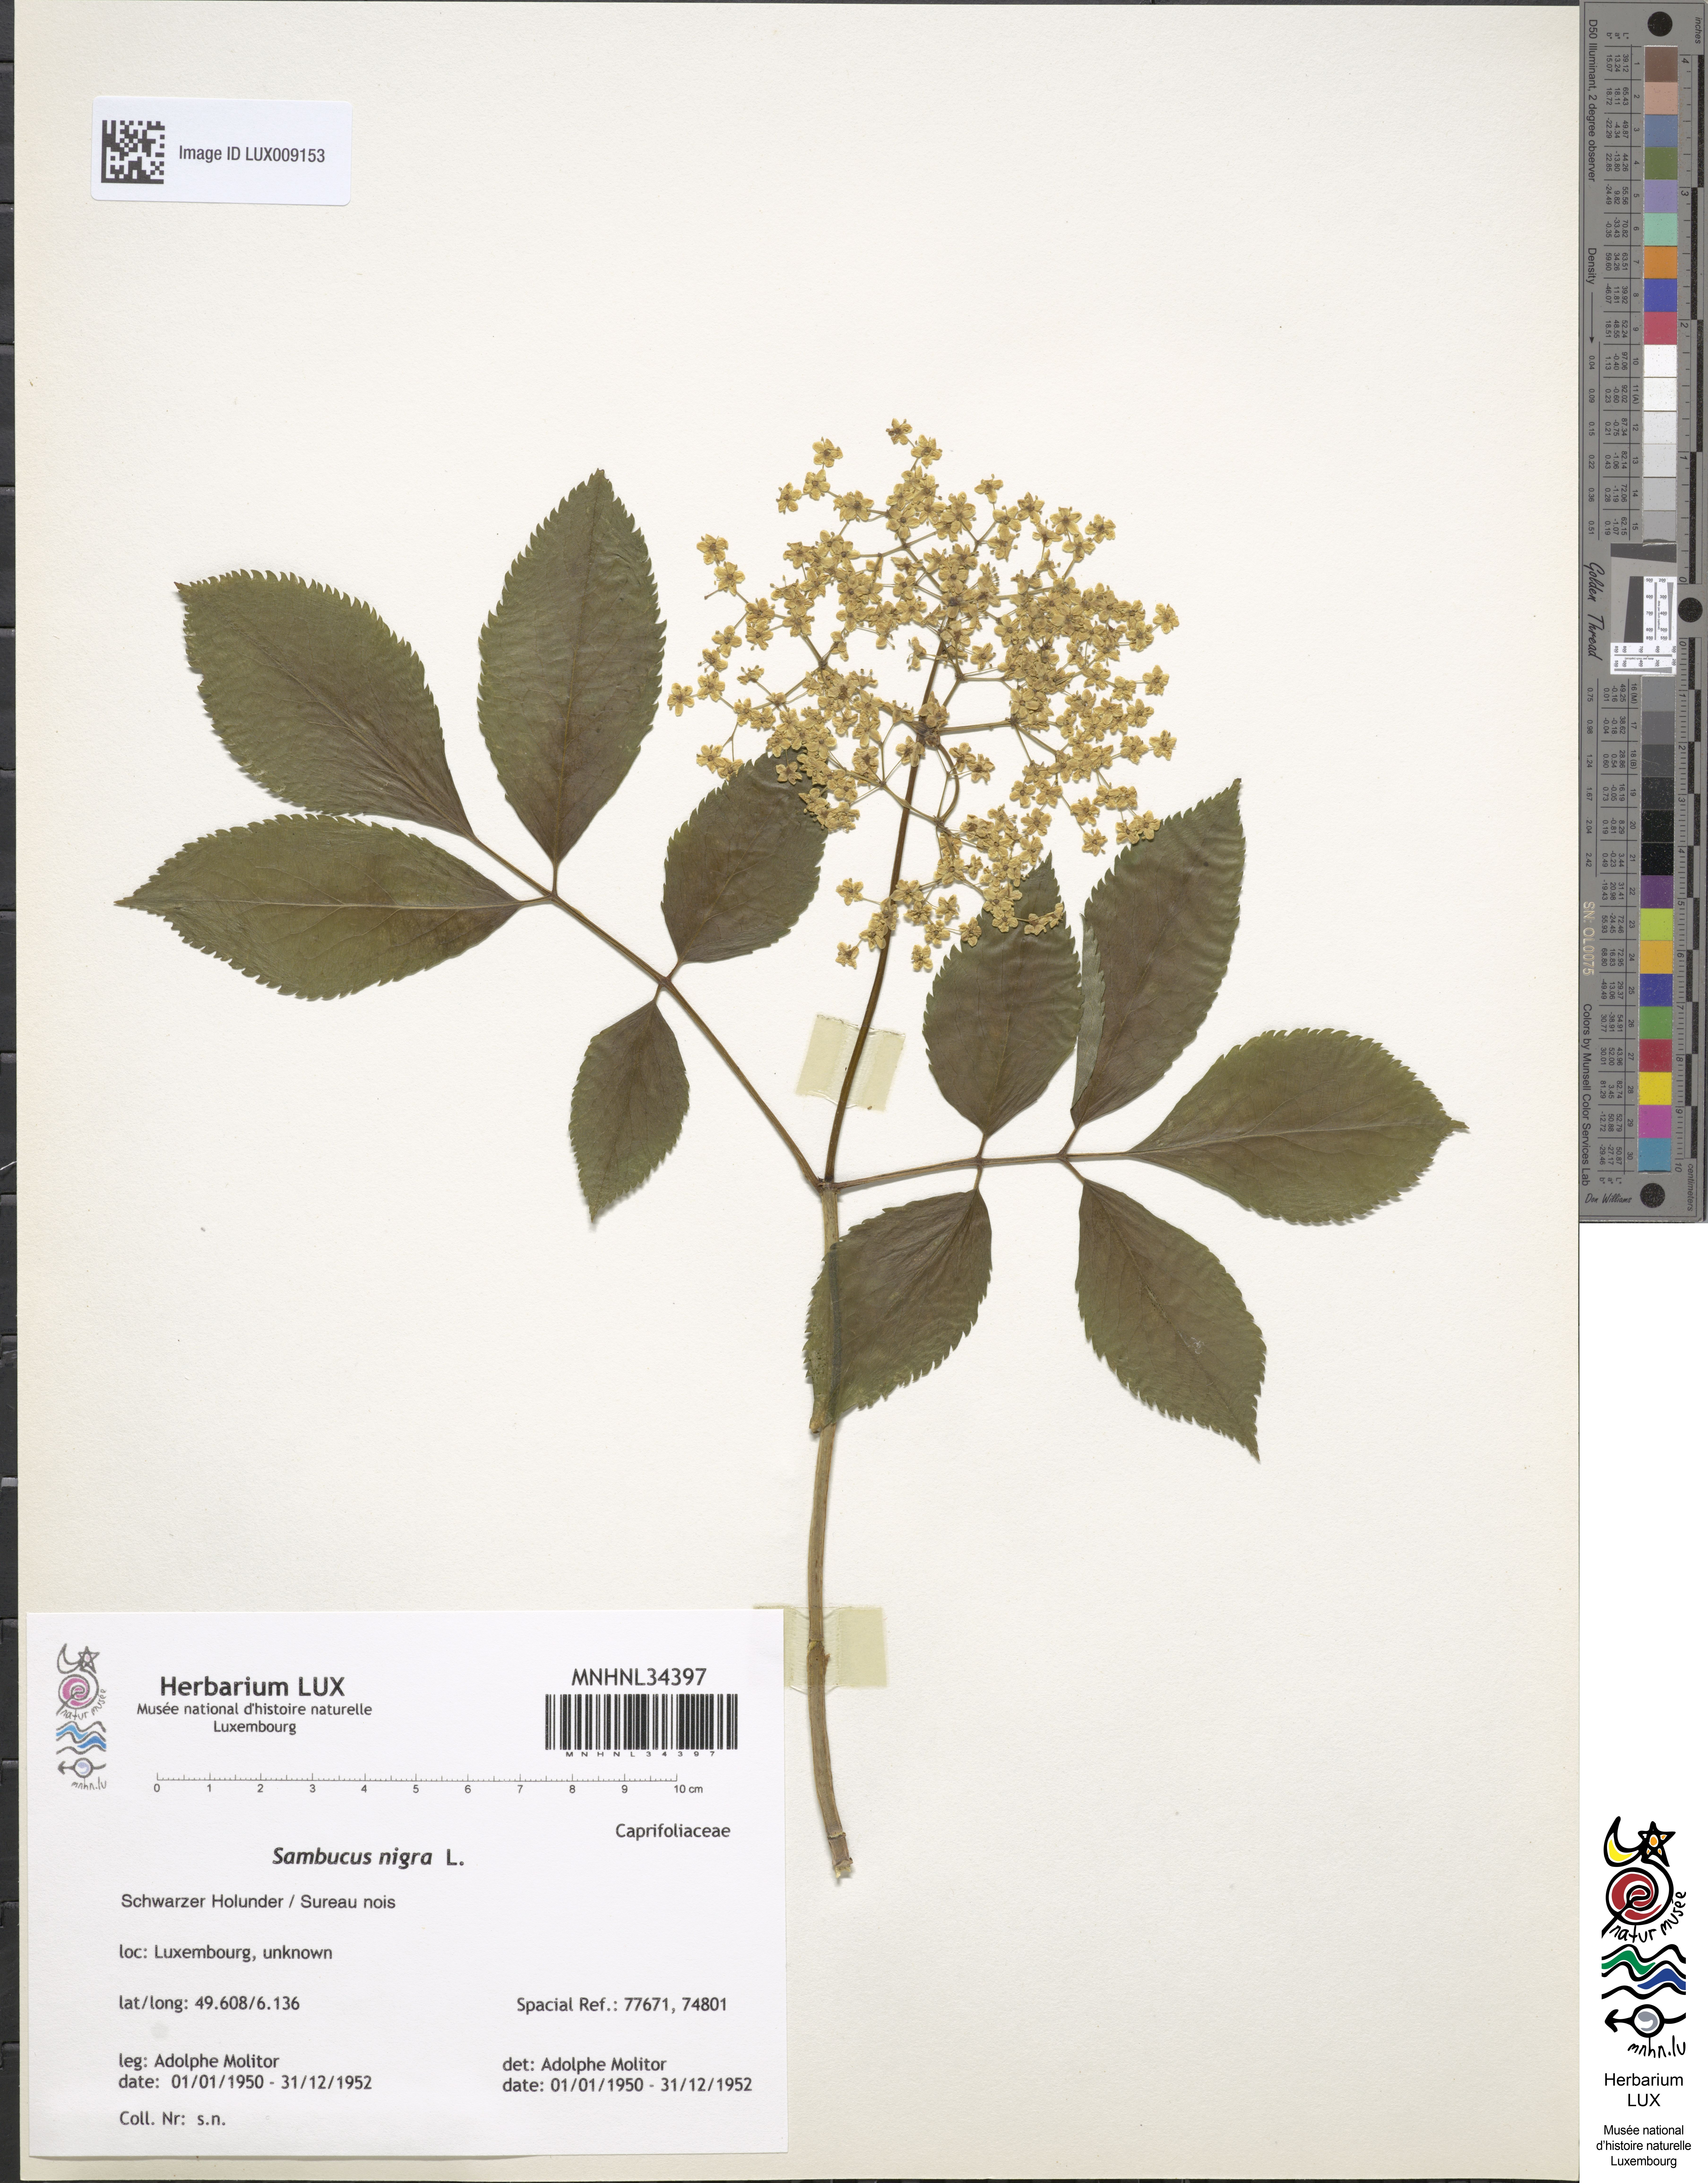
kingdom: Plantae
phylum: Tracheophyta
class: Magnoliopsida
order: Dipsacales
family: Viburnaceae
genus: Sambucus
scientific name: Sambucus nigra
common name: Elder
